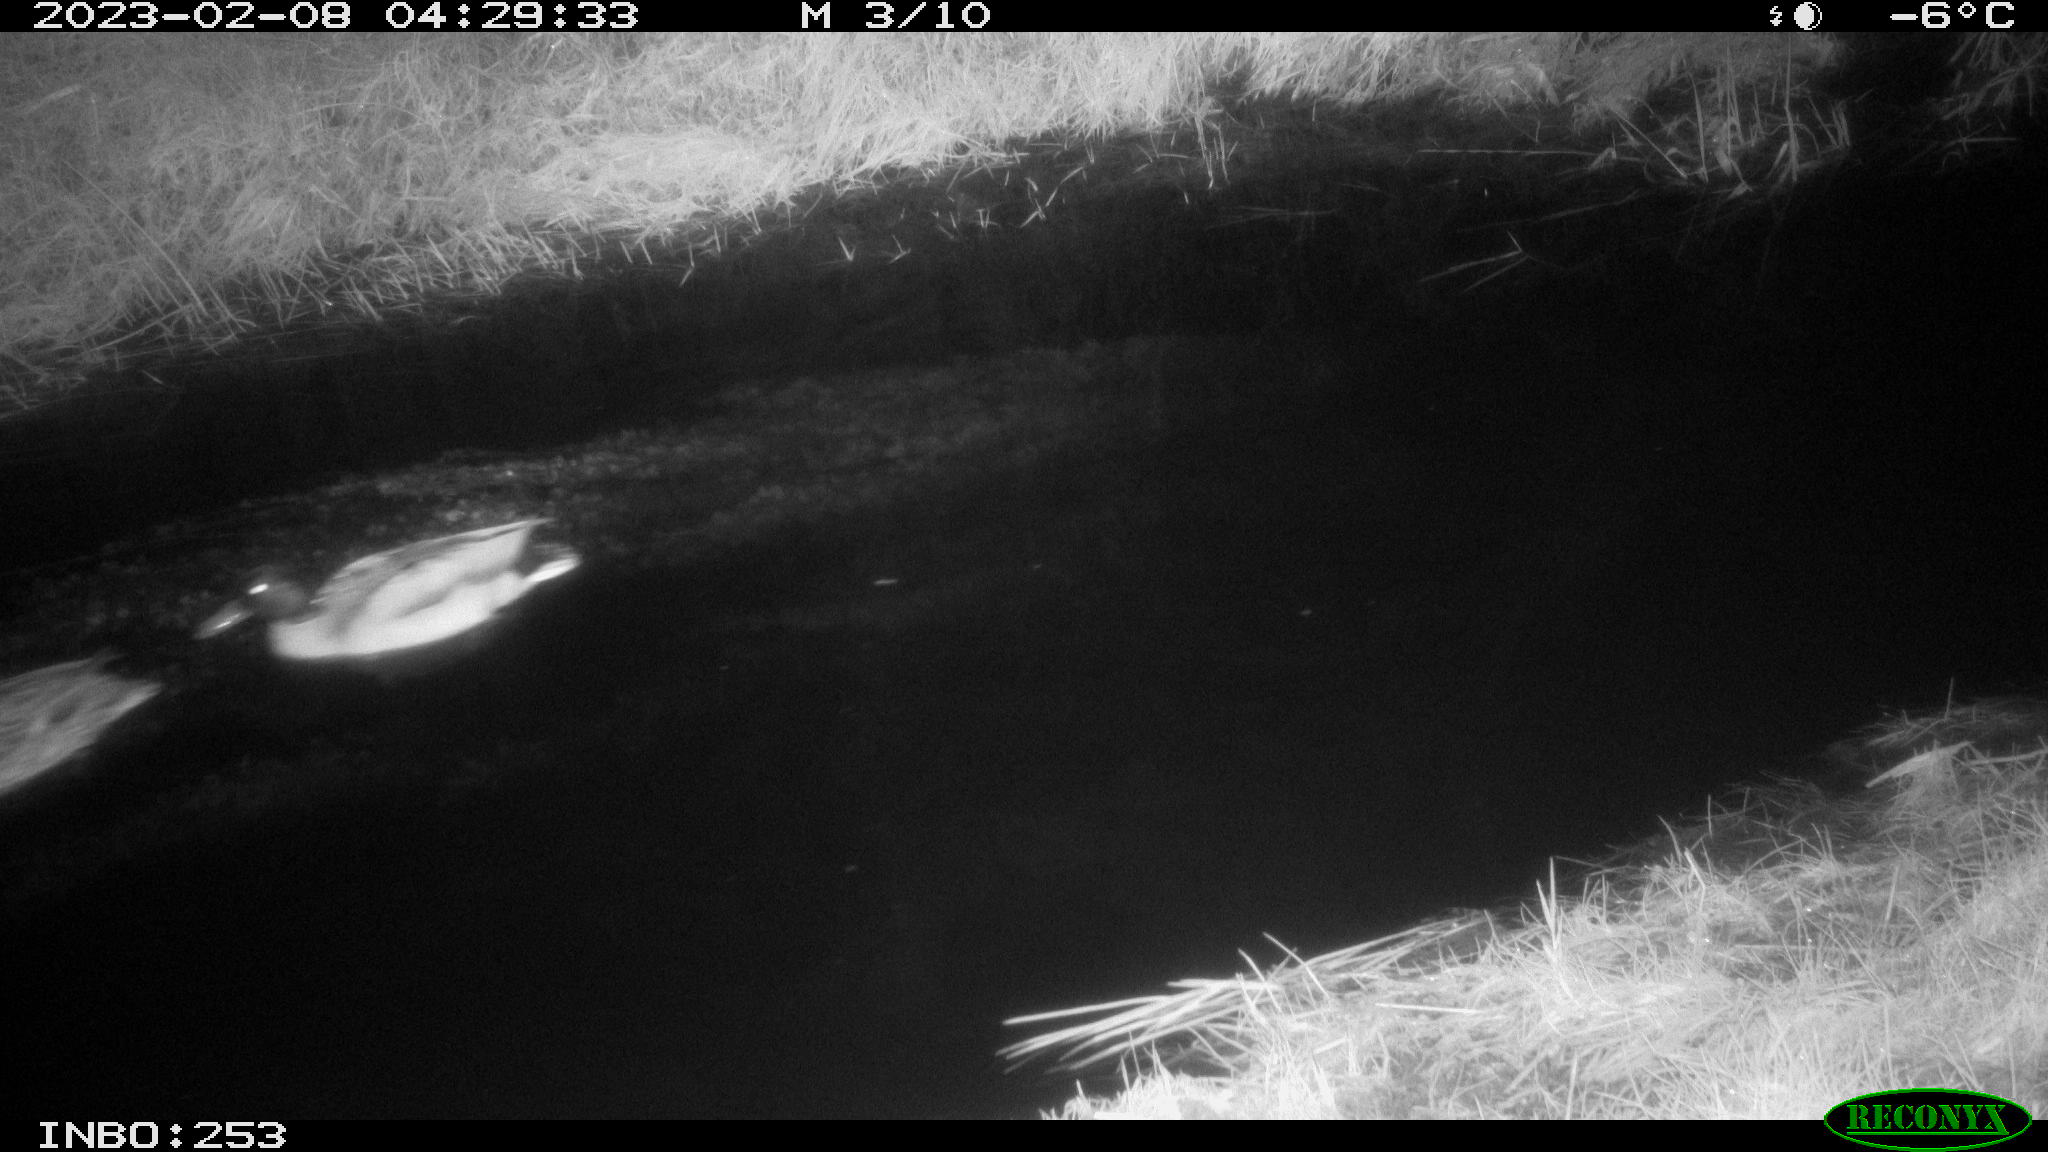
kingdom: Animalia
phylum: Chordata
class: Aves
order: Anseriformes
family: Anatidae
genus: Anas
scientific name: Anas
